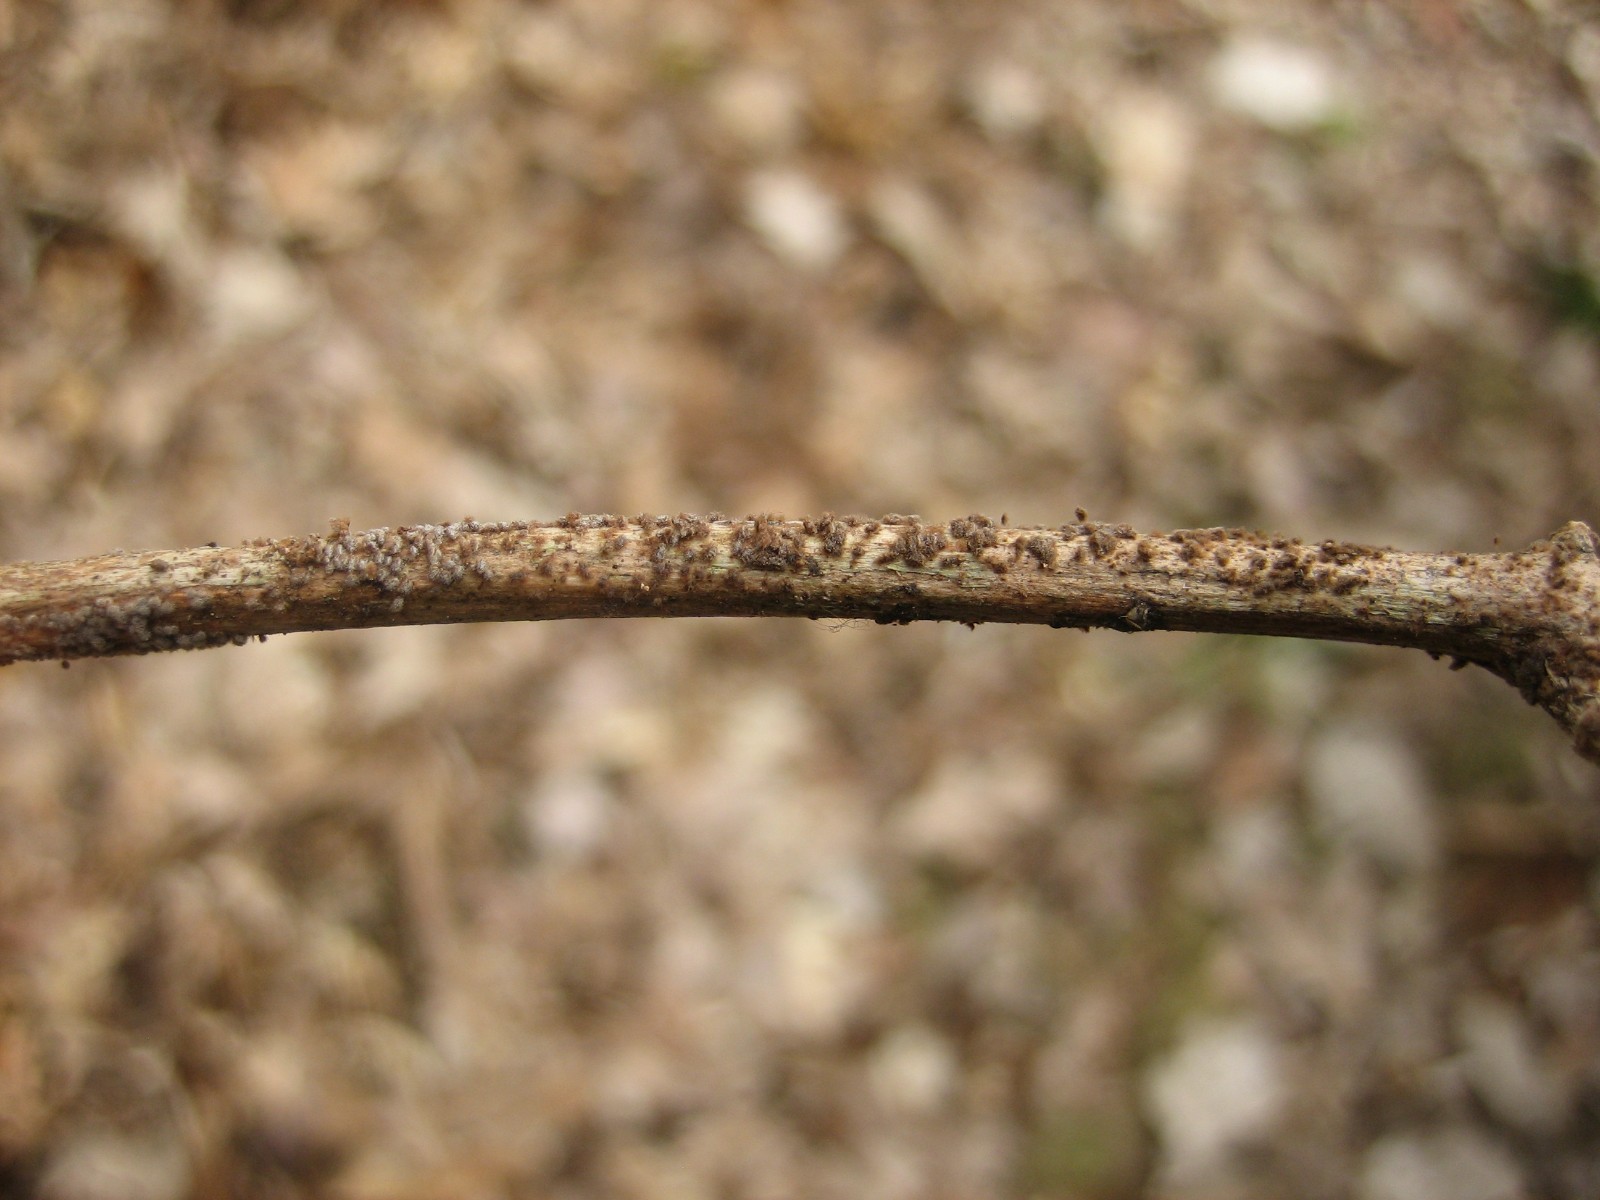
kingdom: Fungi
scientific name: Fungi
